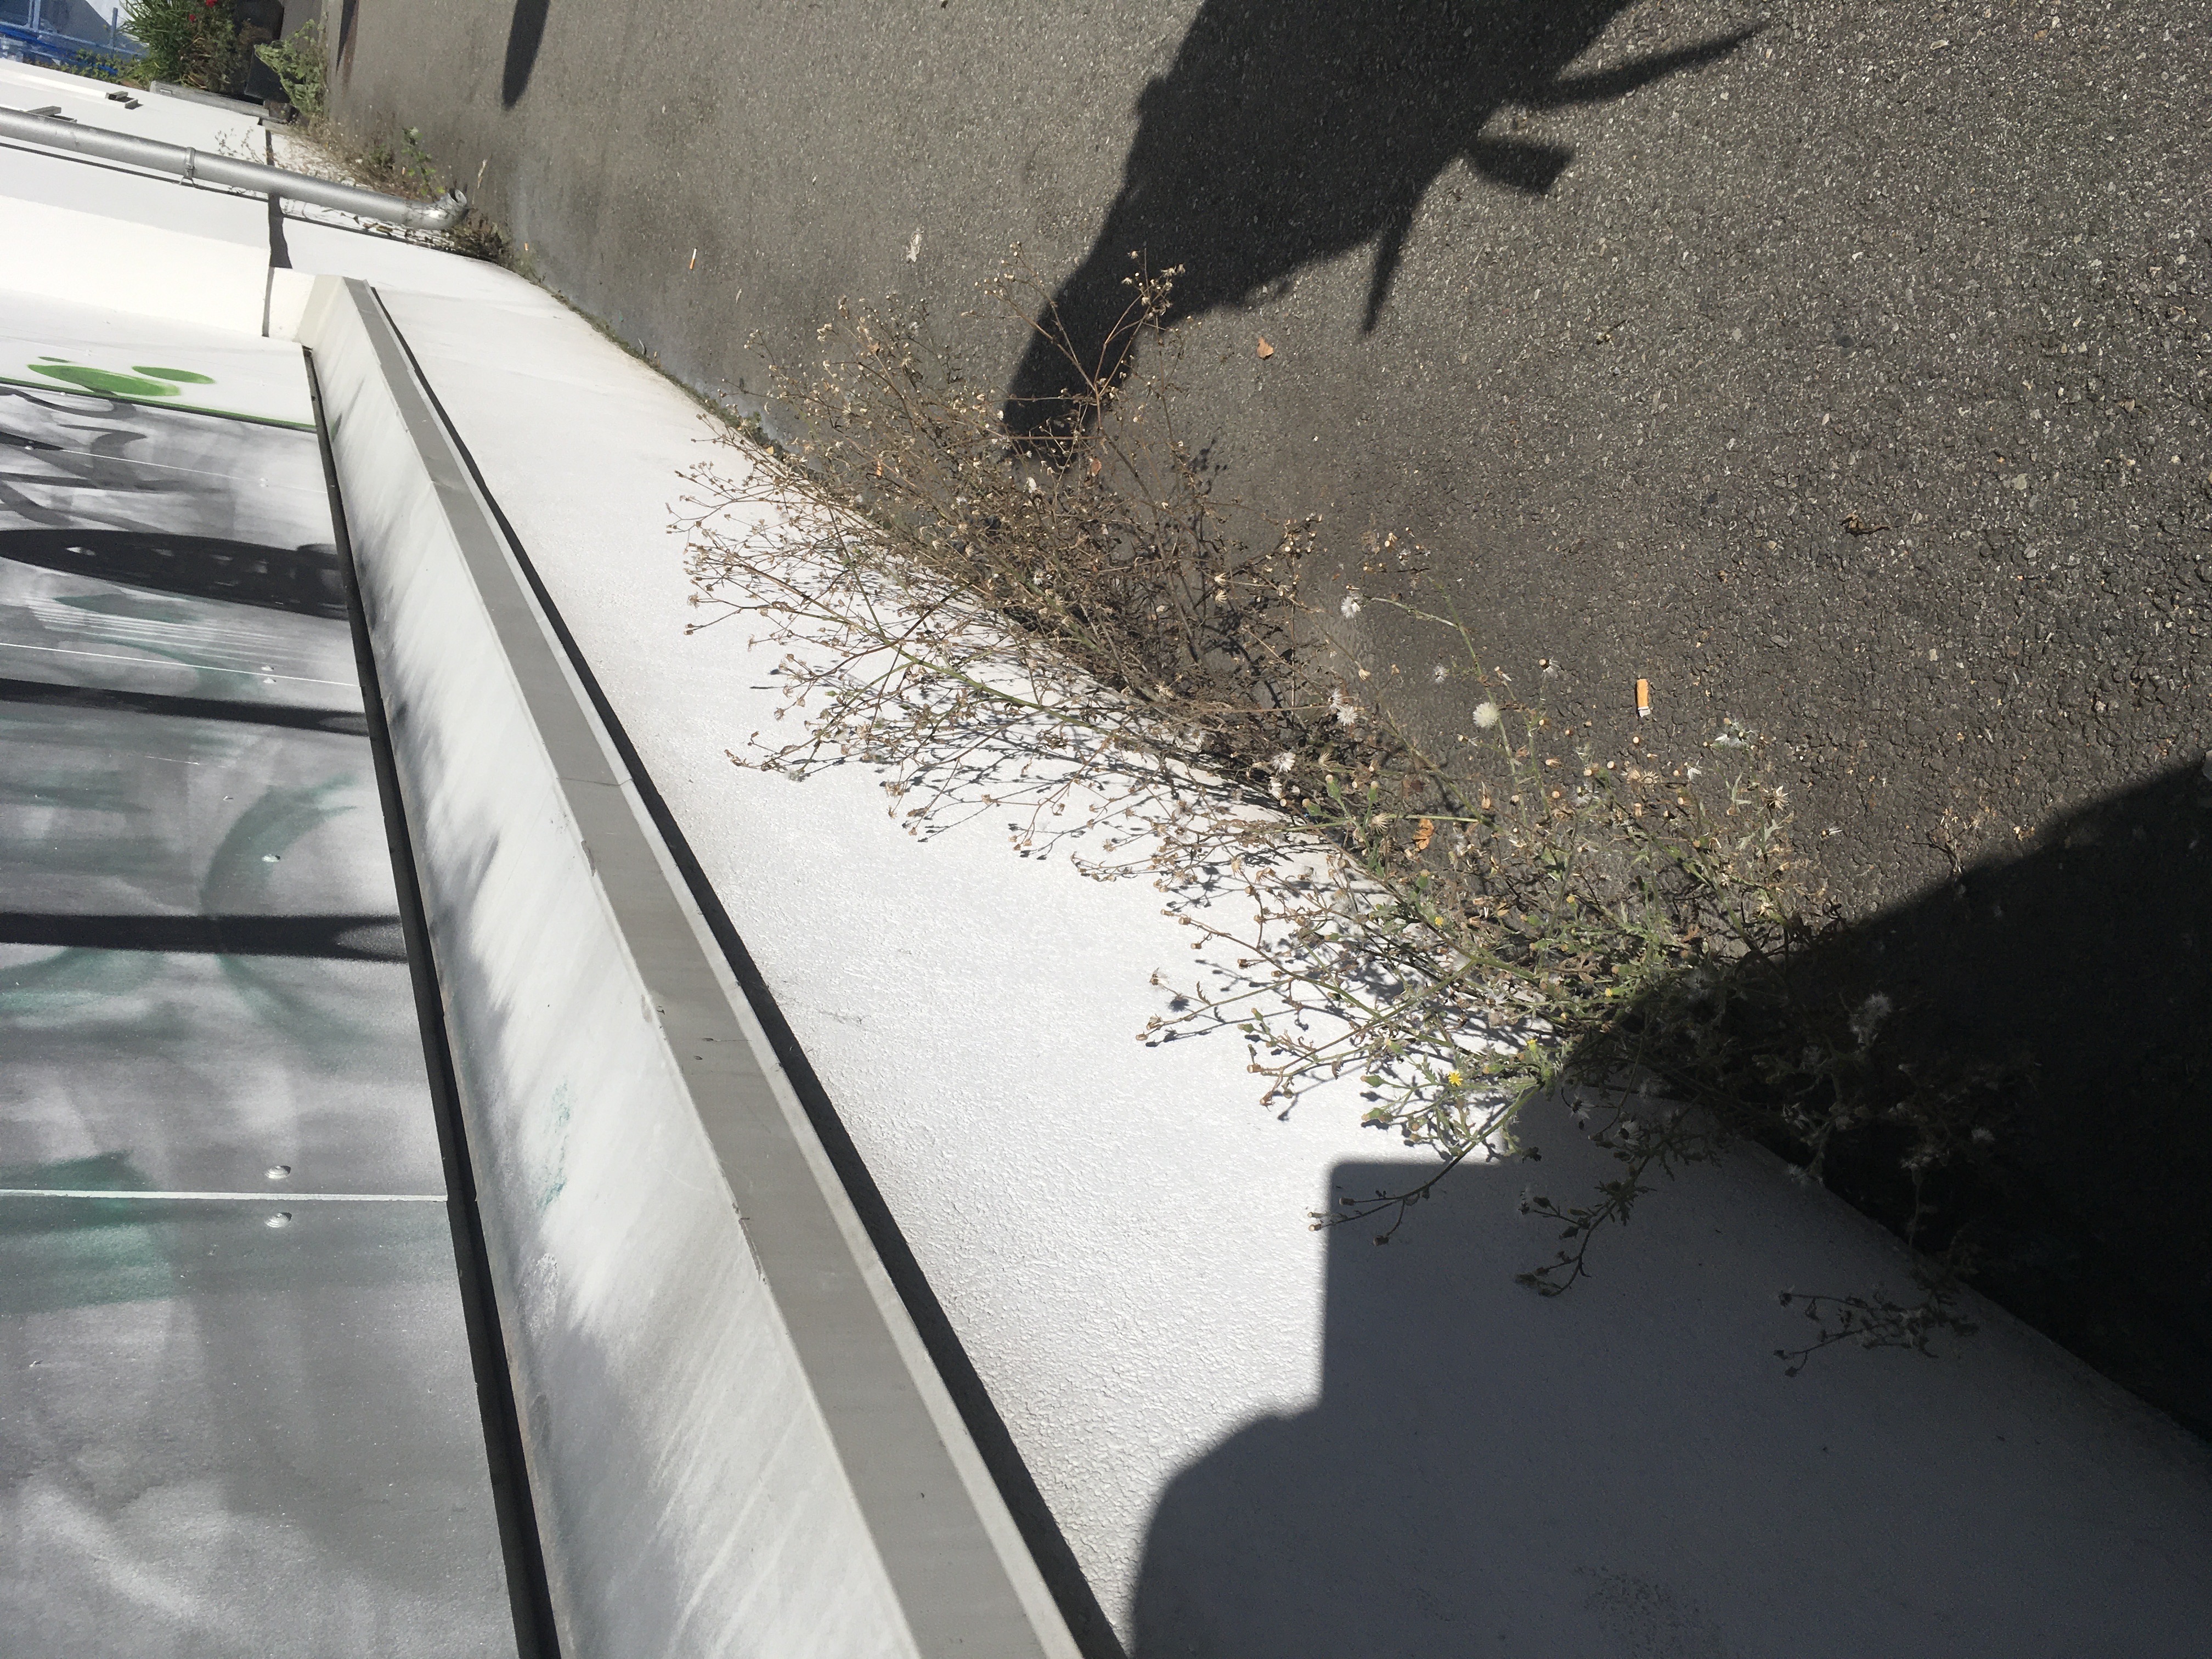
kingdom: Plantae
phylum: Tracheophyta
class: Magnoliopsida
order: Asterales
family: Asteraceae
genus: Senecio
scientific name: Senecio viscosus
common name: klistersvineblom
